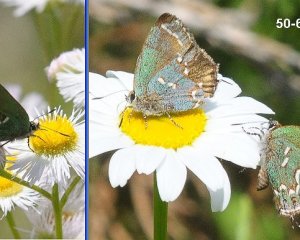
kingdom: Animalia
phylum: Arthropoda
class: Insecta
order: Lepidoptera
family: Lycaenidae
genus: Mitoura
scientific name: Mitoura gryneus
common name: Juniper Hairstreak
